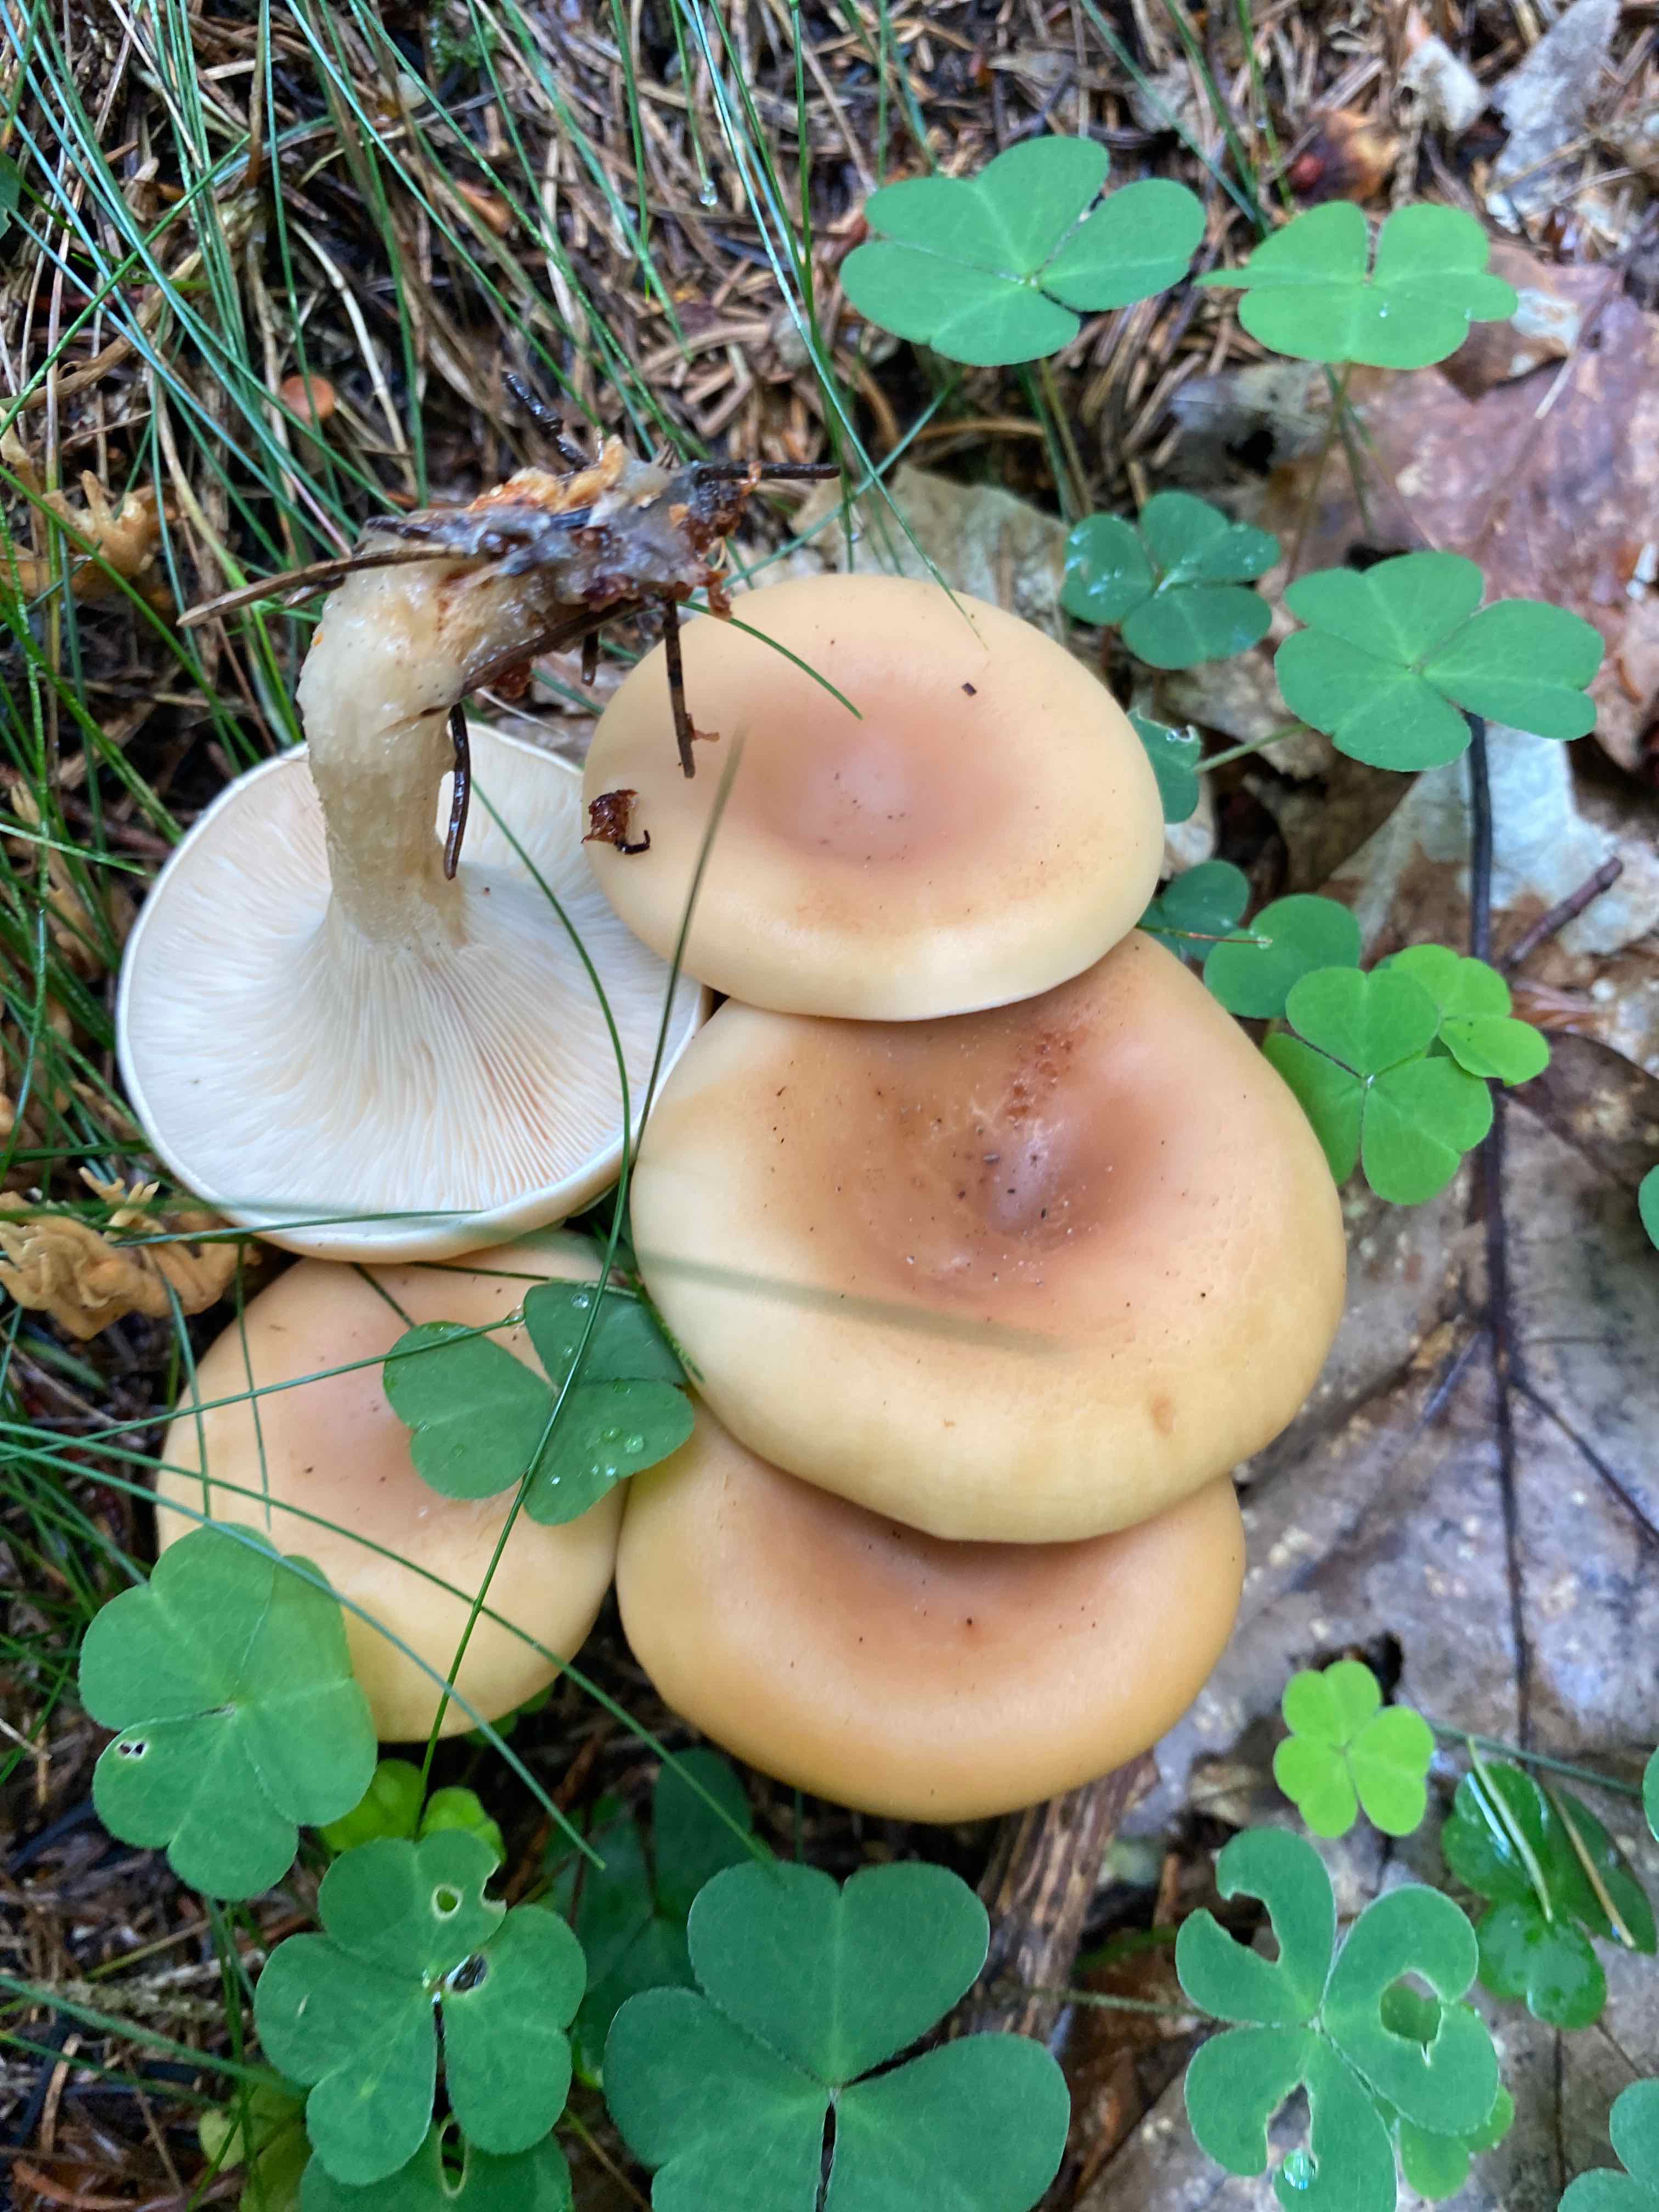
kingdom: Fungi
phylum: Basidiomycota
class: Agaricomycetes
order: Agaricales
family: Tricholomataceae
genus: Paralepista
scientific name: Paralepista flaccida
